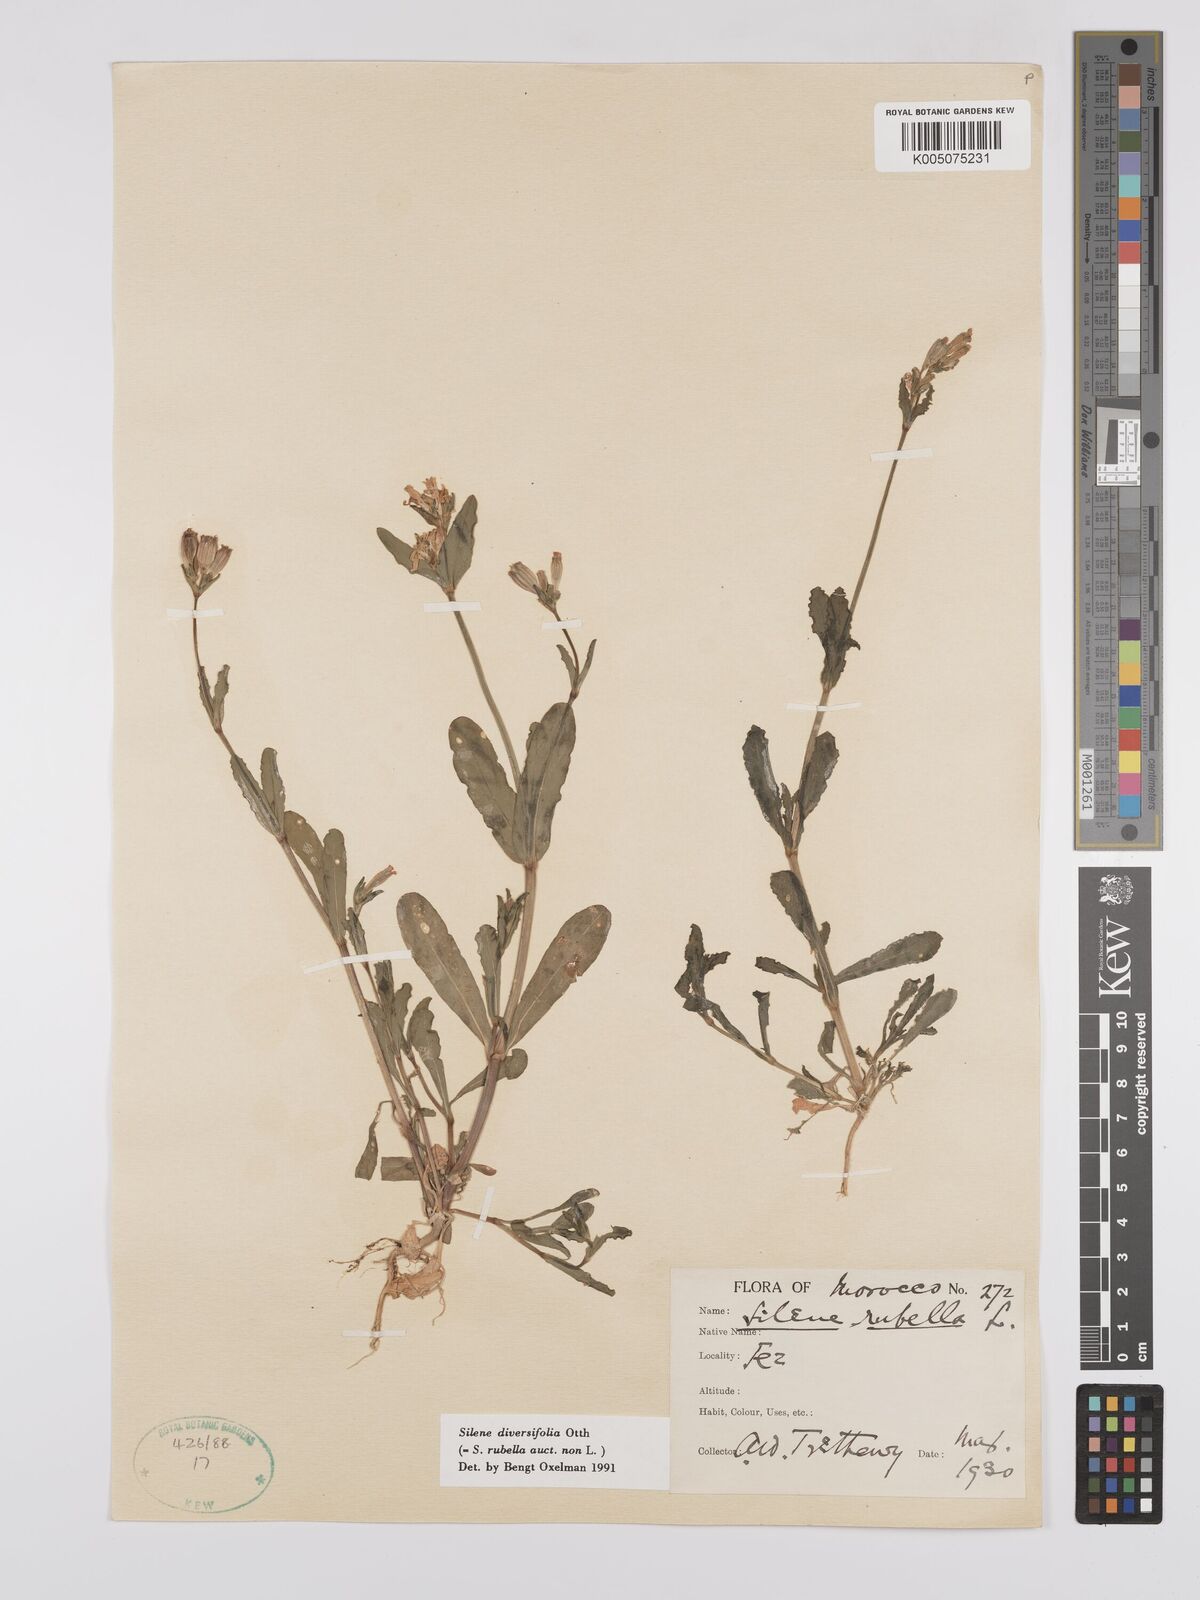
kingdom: Plantae
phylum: Tracheophyta
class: Magnoliopsida
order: Caryophyllales
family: Caryophyllaceae
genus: Silene
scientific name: Silene rubella
